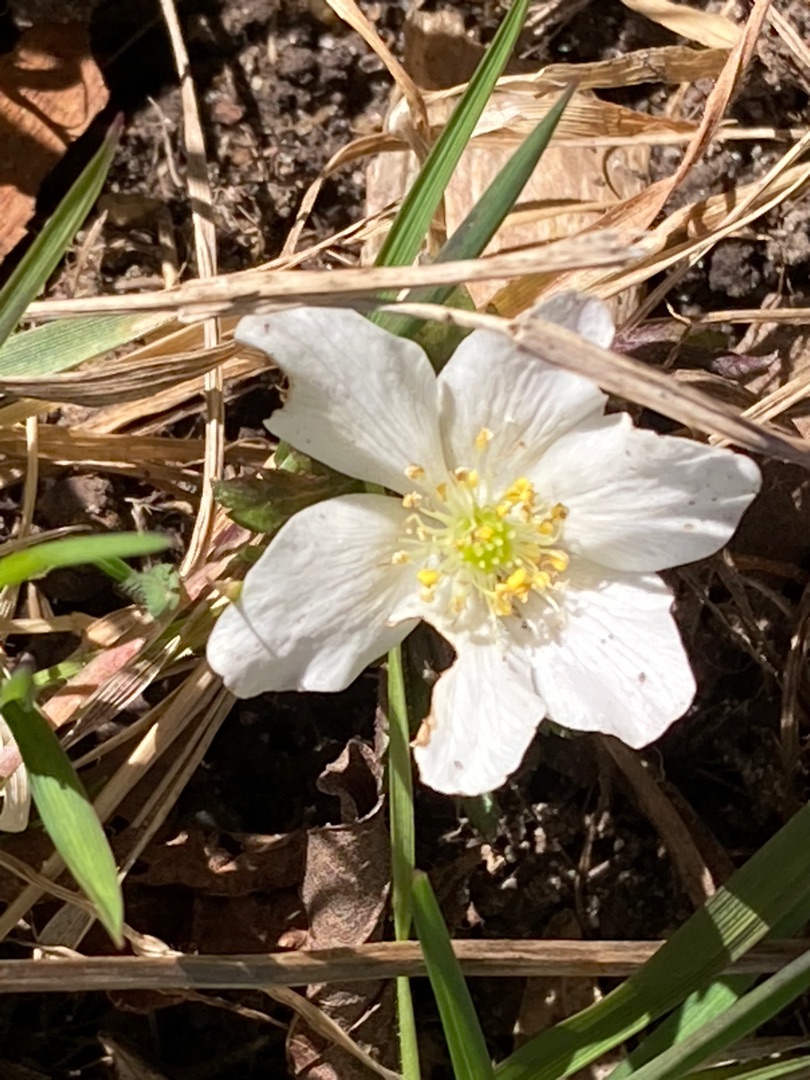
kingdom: Plantae
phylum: Tracheophyta
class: Magnoliopsida
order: Ranunculales
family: Ranunculaceae
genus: Anemone
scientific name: Anemone nemorosa
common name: Hvid anemone
